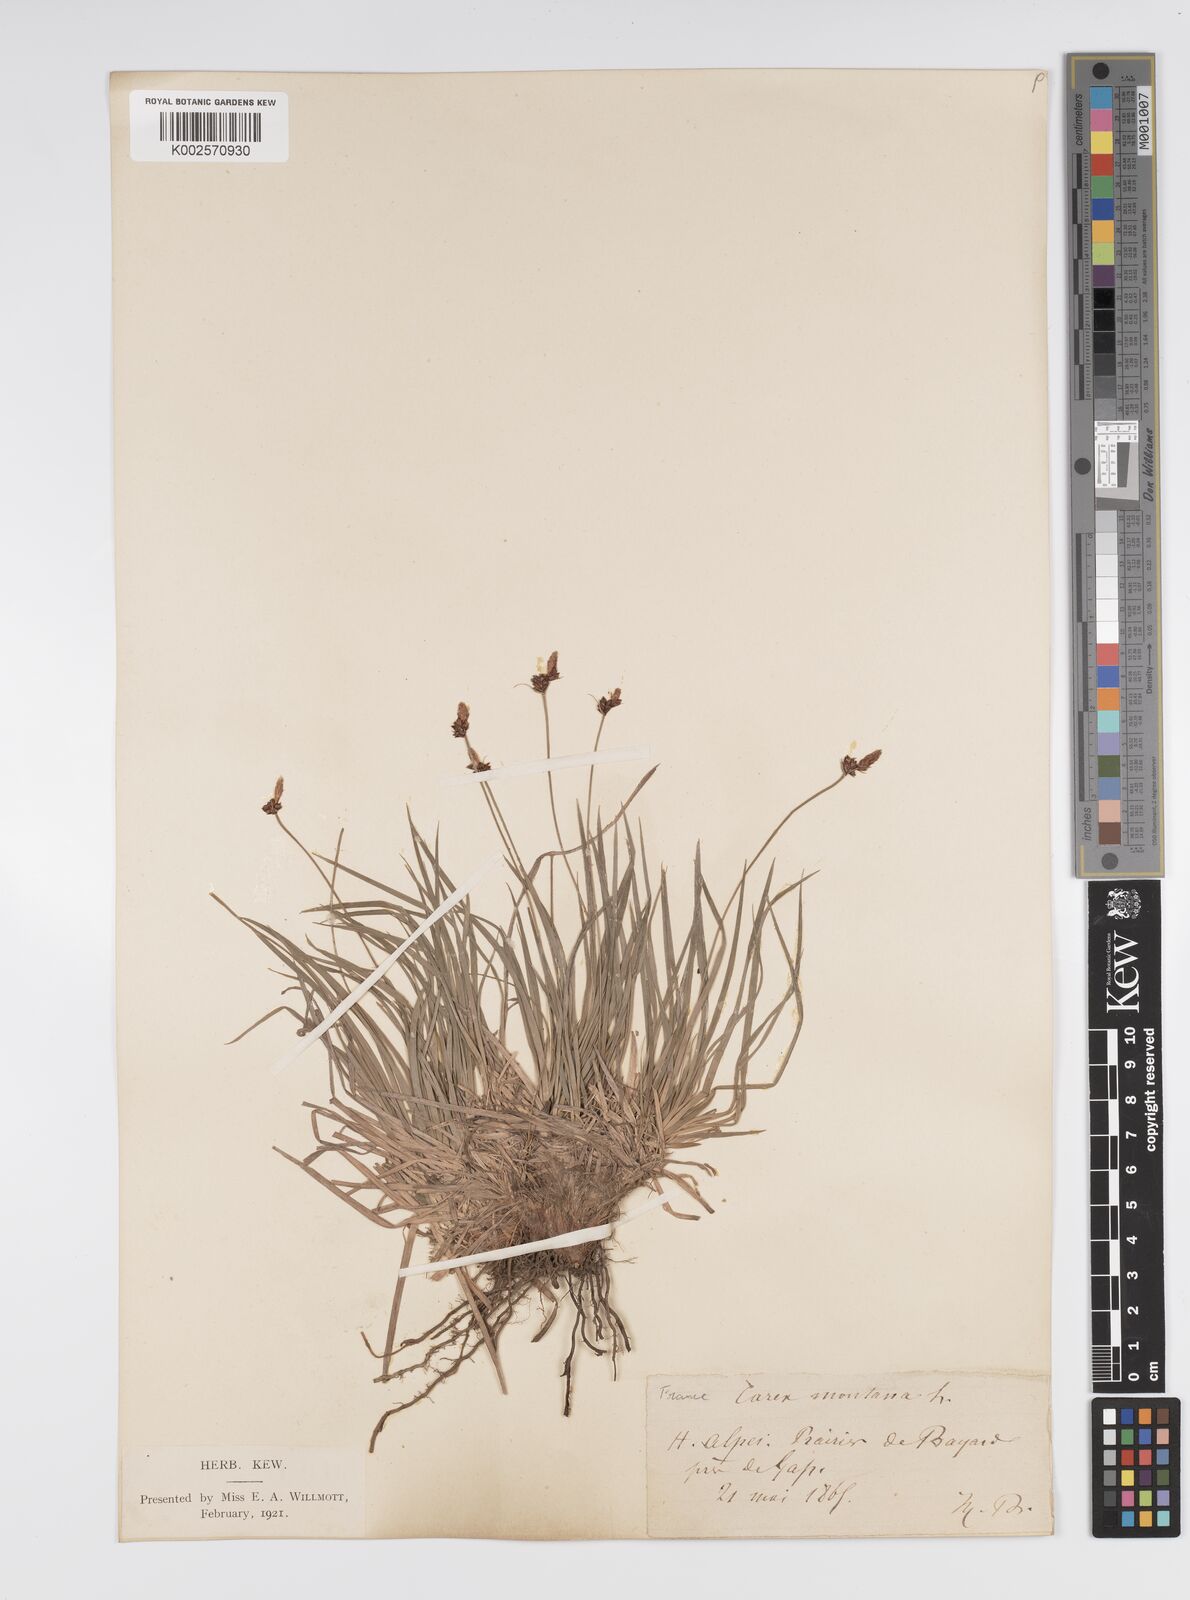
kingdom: Plantae
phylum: Tracheophyta
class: Liliopsida
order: Poales
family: Cyperaceae
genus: Carex
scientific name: Carex montana
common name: Soft-leaved sedge
